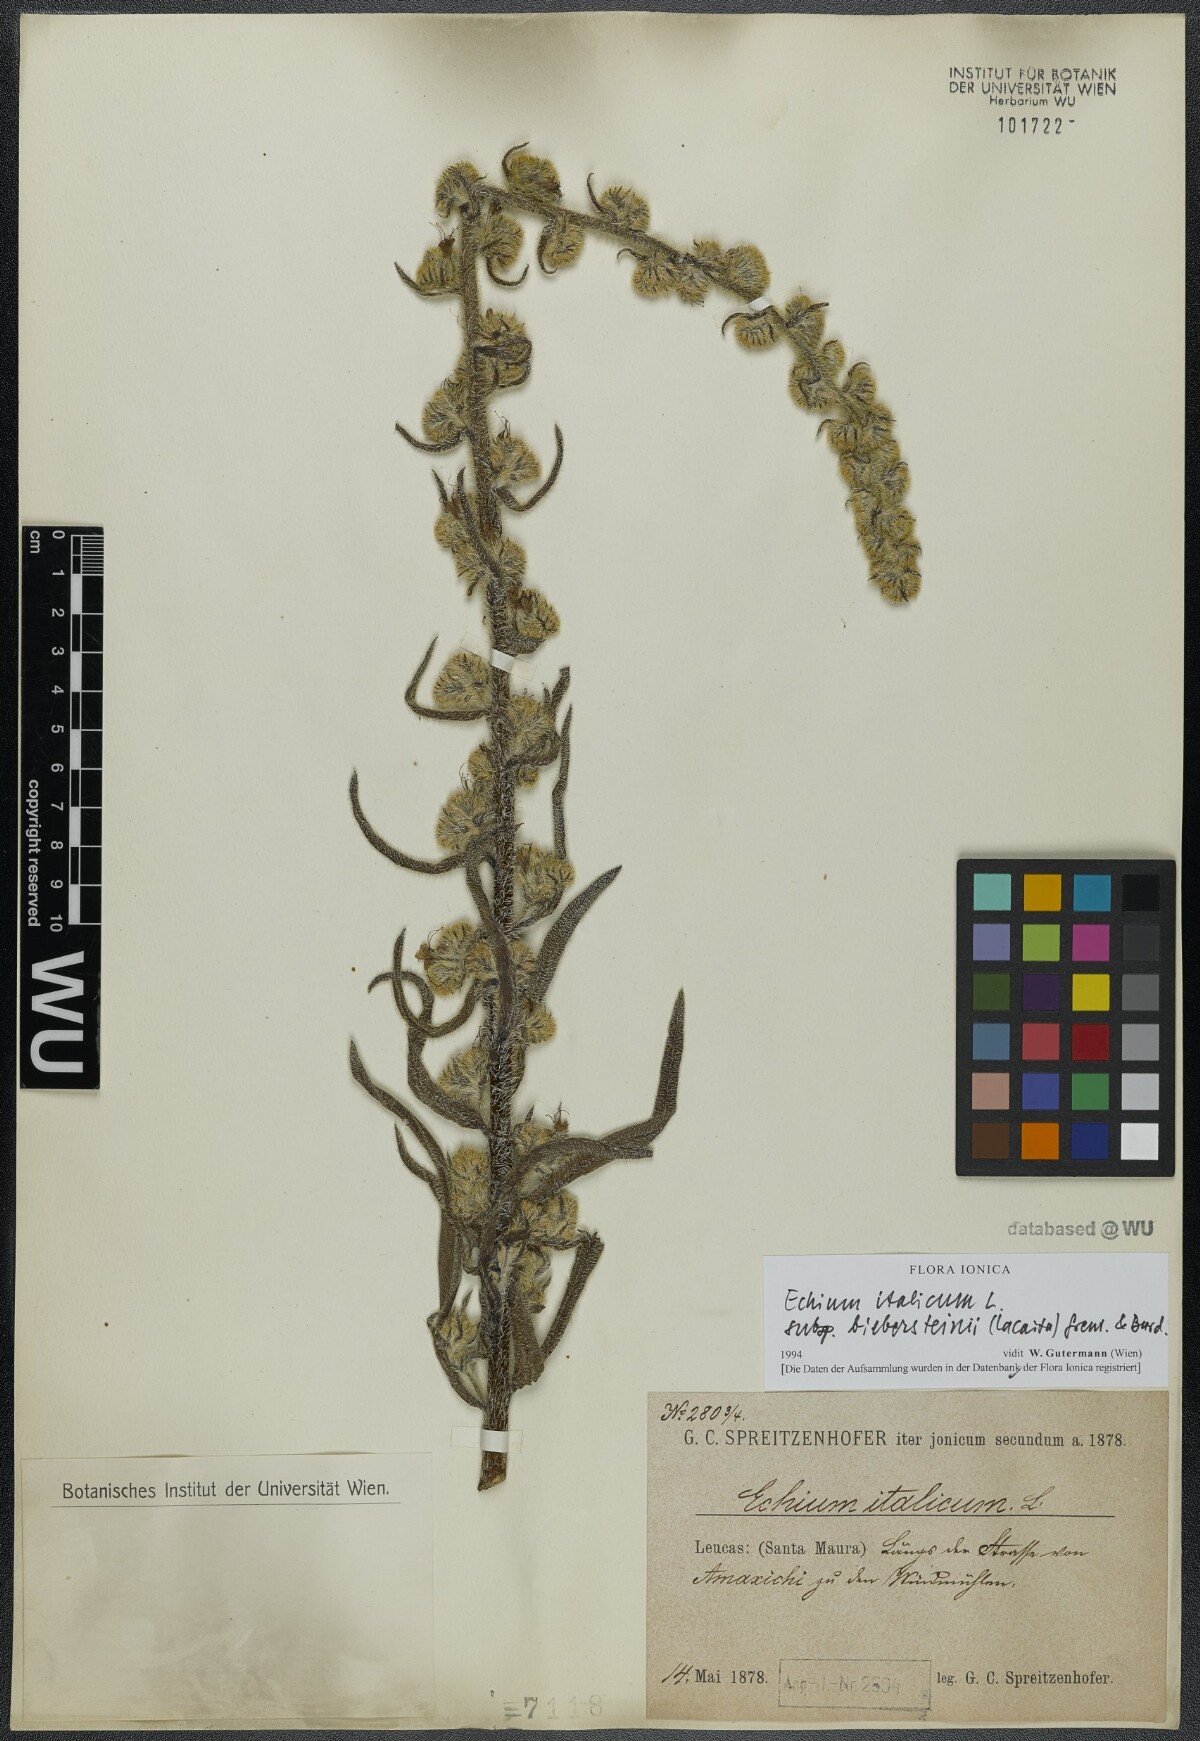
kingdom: Plantae
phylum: Tracheophyta
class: Magnoliopsida
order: Boraginales
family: Boraginaceae
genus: Echium
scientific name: Echium italicum
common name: Italian viper's bugloss
